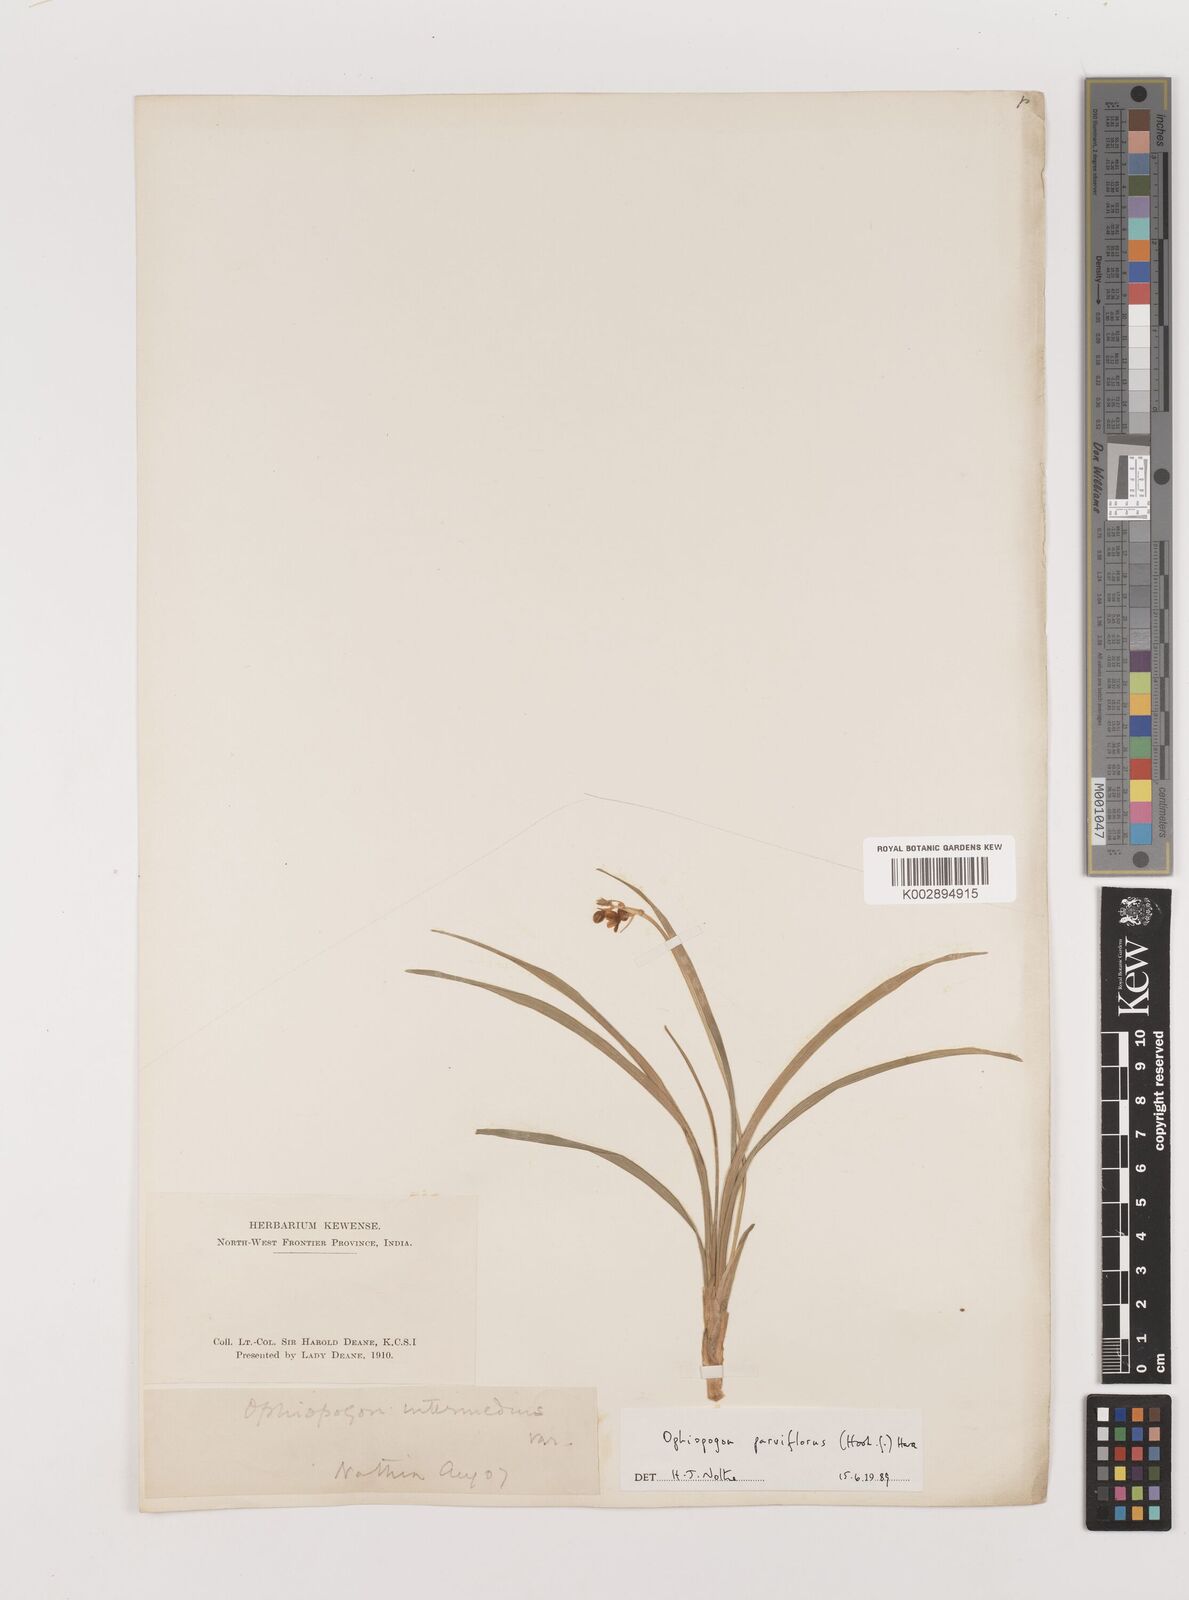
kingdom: Plantae
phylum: Tracheophyta
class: Liliopsida
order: Asparagales
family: Asparagaceae
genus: Ophiopogon
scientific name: Ophiopogon intermedius
